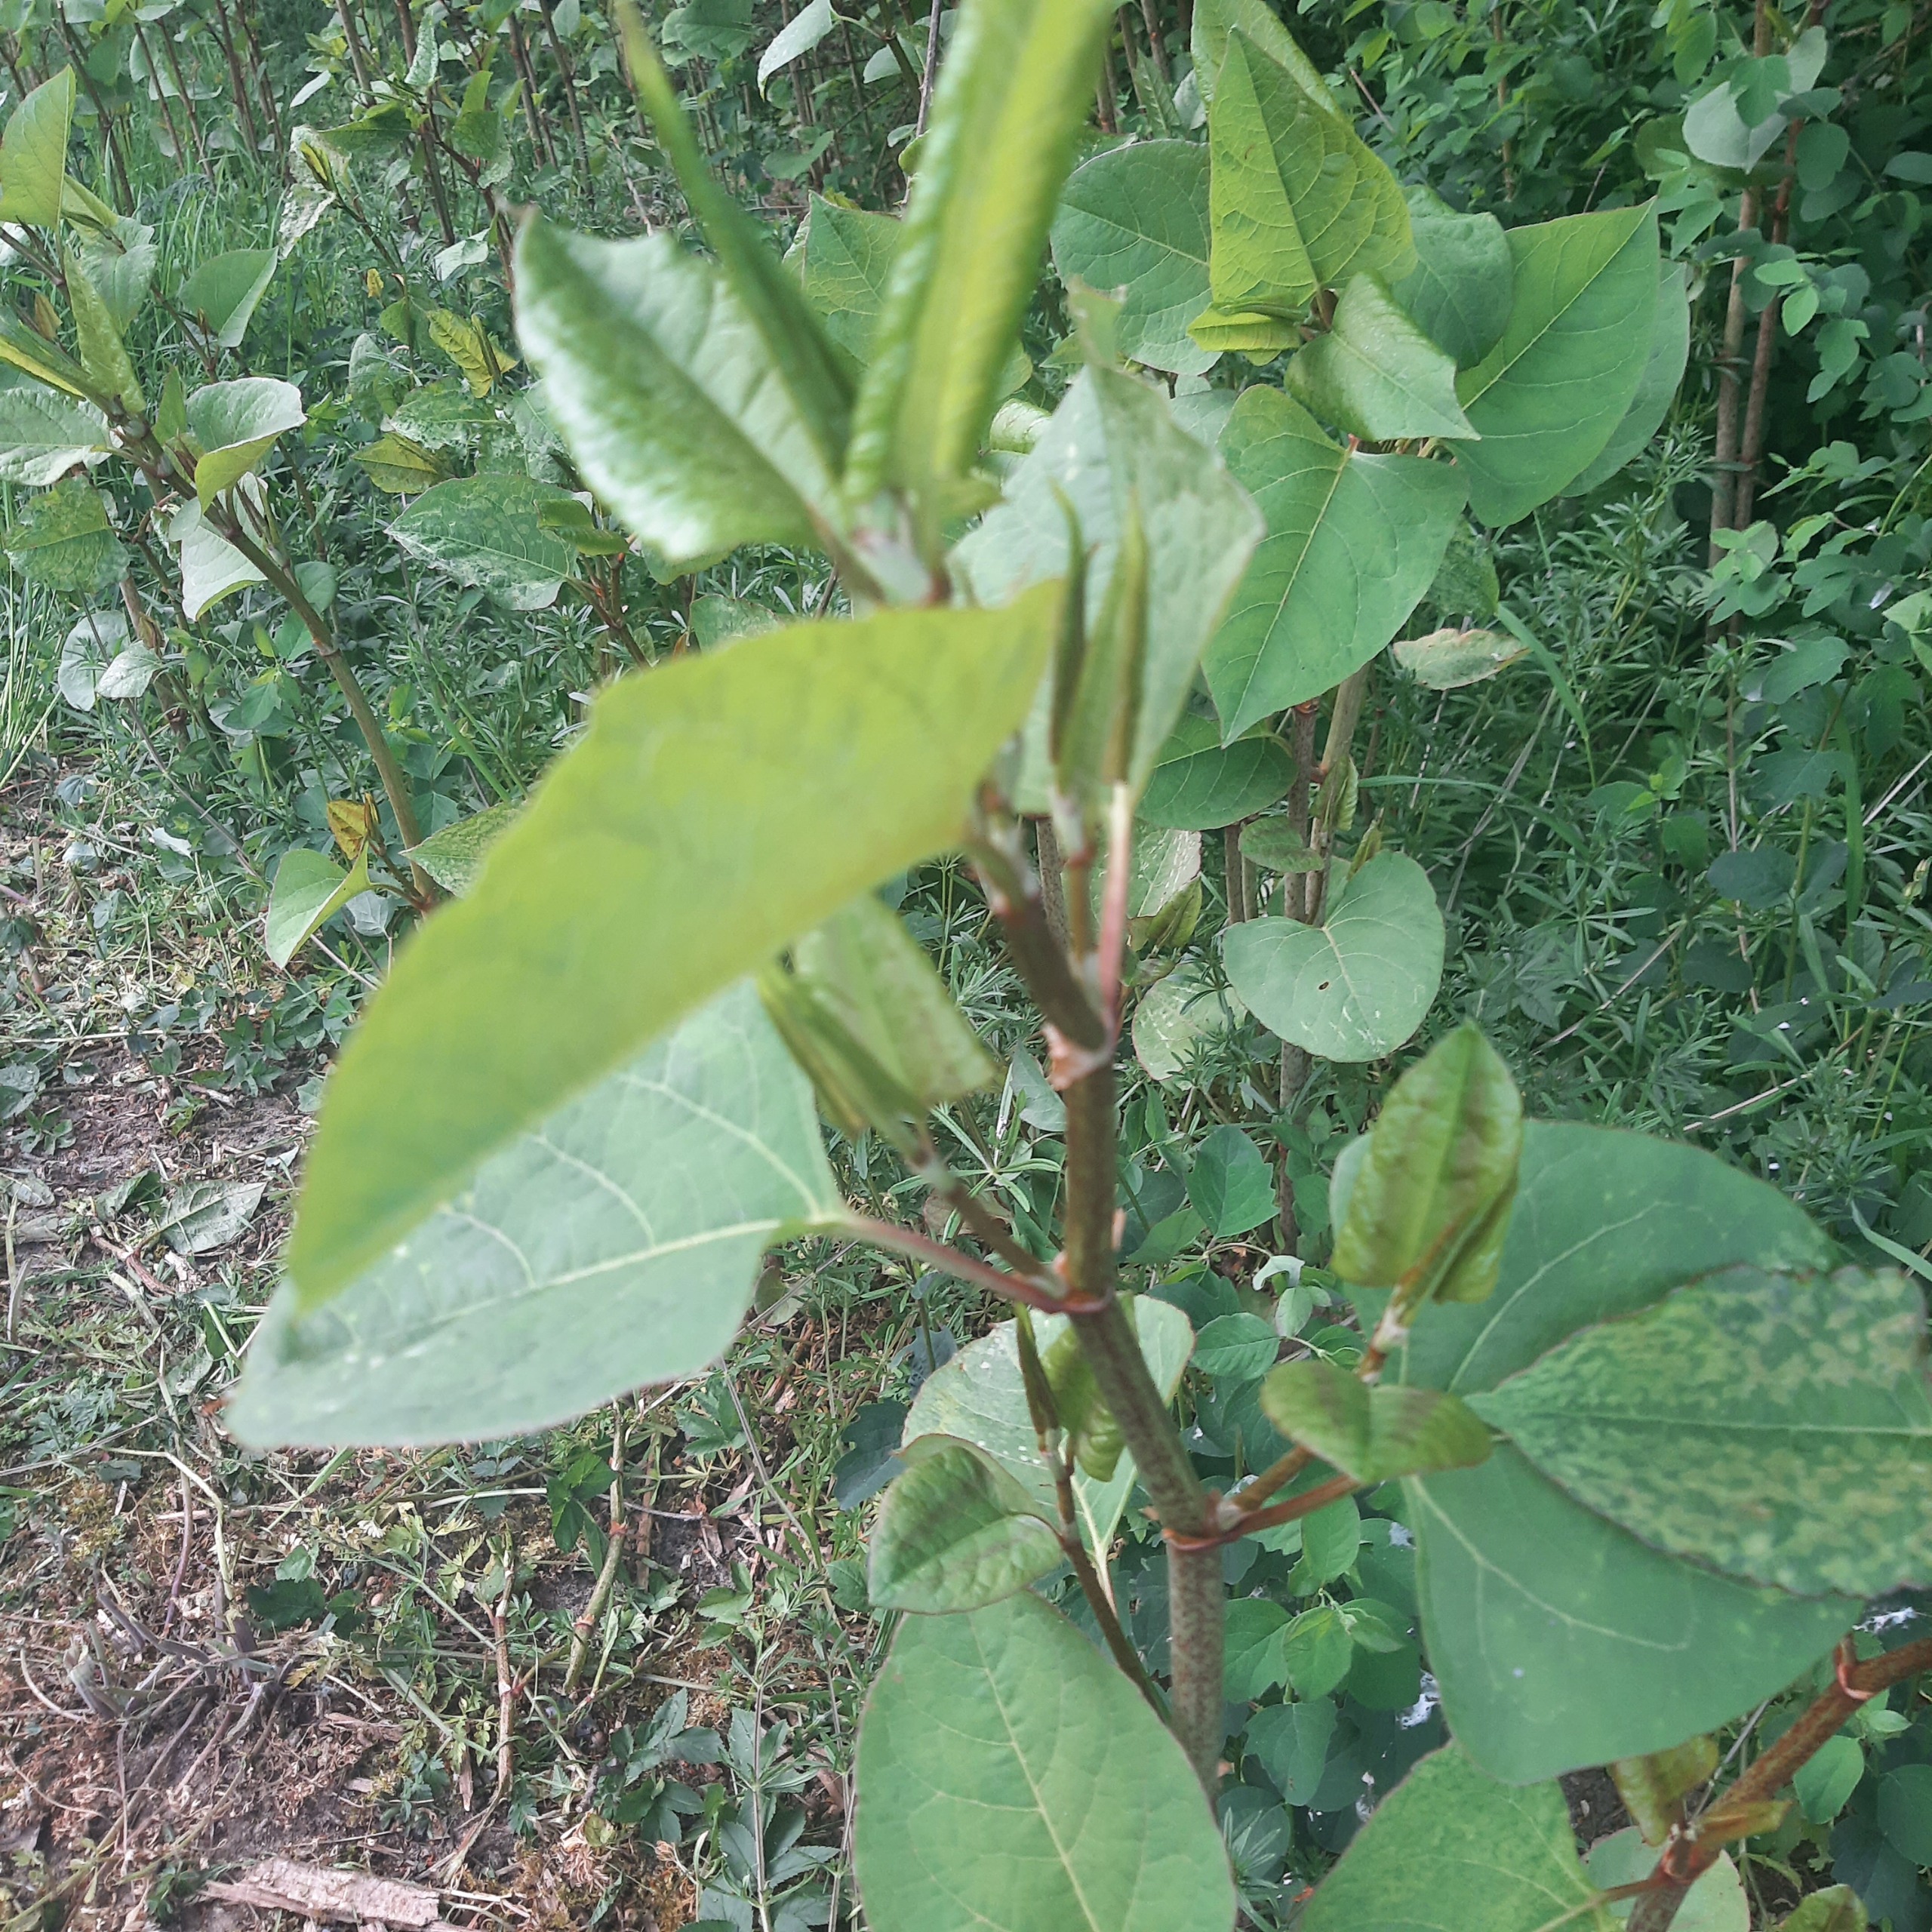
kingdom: Plantae
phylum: Tracheophyta
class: Magnoliopsida
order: Caryophyllales
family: Polygonaceae
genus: Reynoutria
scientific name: Reynoutria
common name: Pileurt (Reynoutria-slægten)
